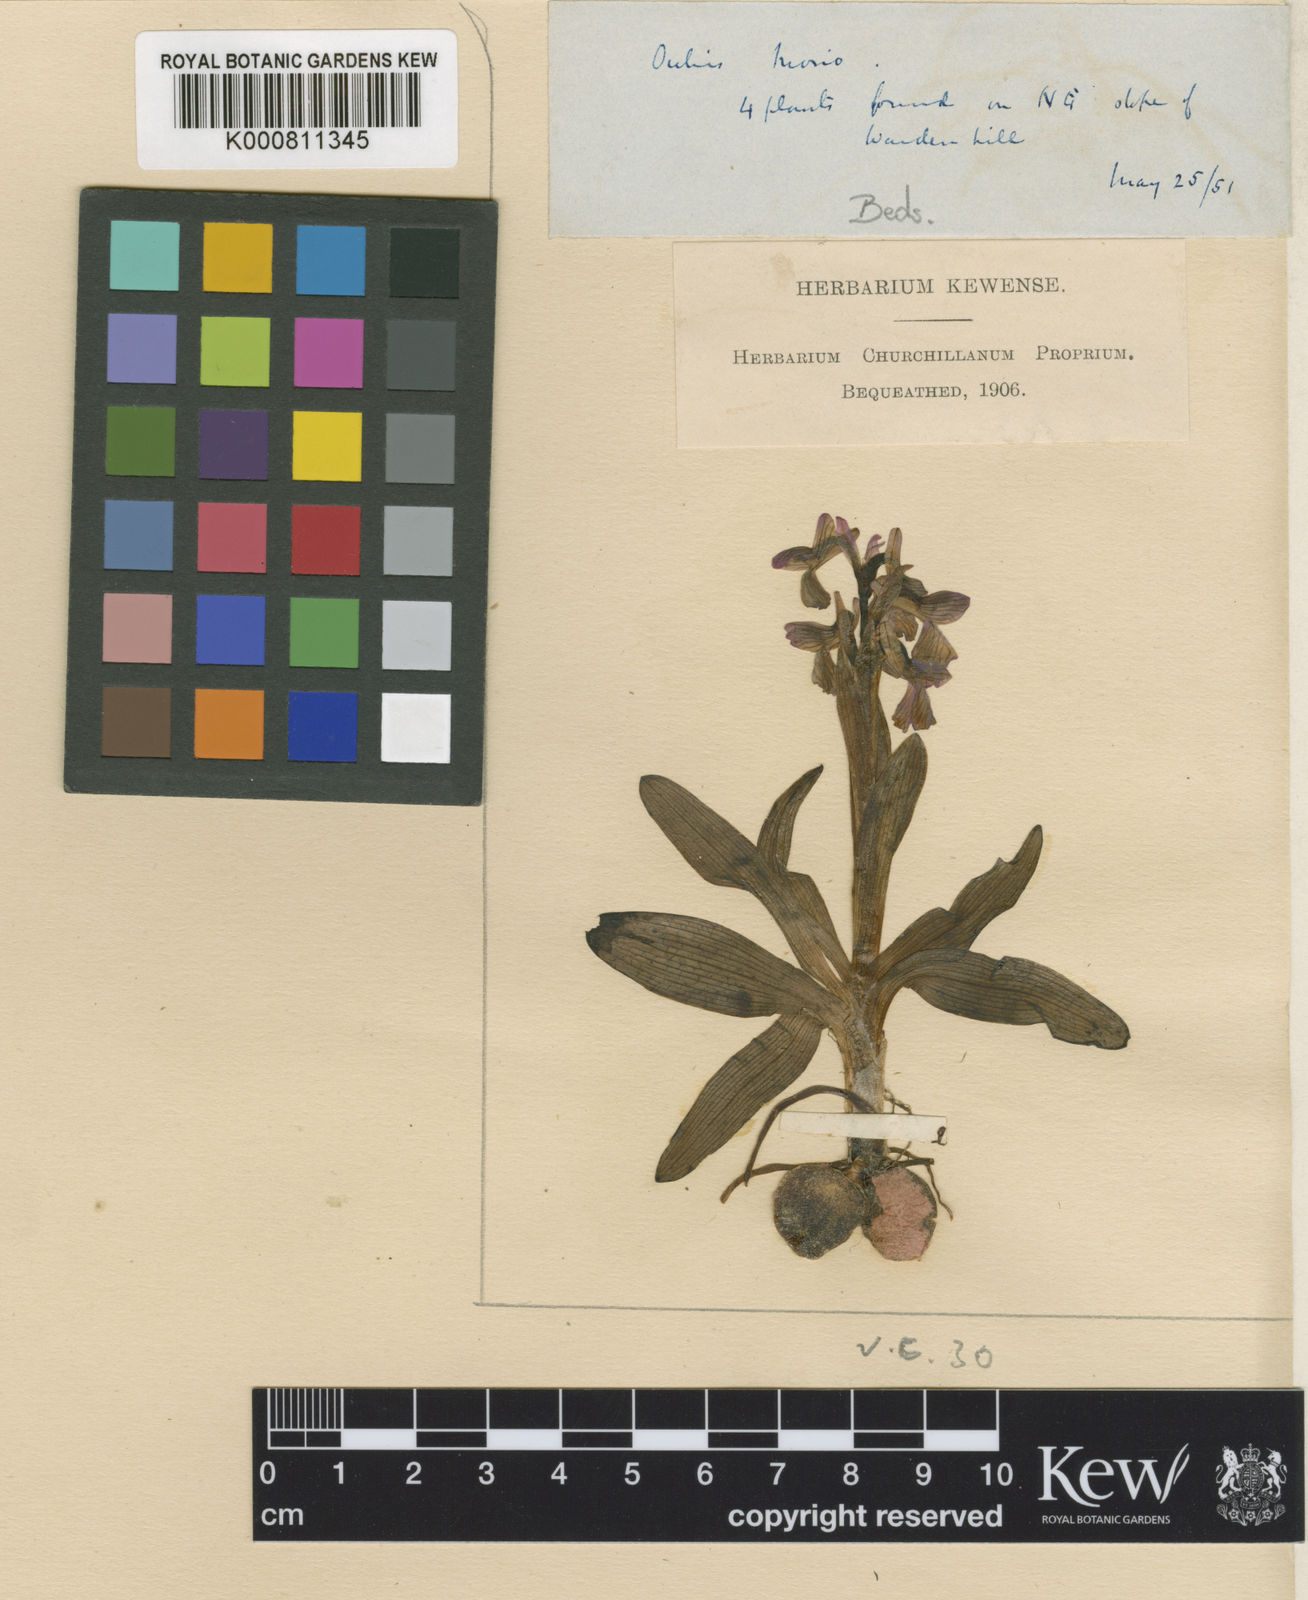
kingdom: Plantae
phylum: Tracheophyta
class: Liliopsida
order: Asparagales
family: Orchidaceae
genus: Anacamptis
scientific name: Anacamptis morio
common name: Green-winged orchid
